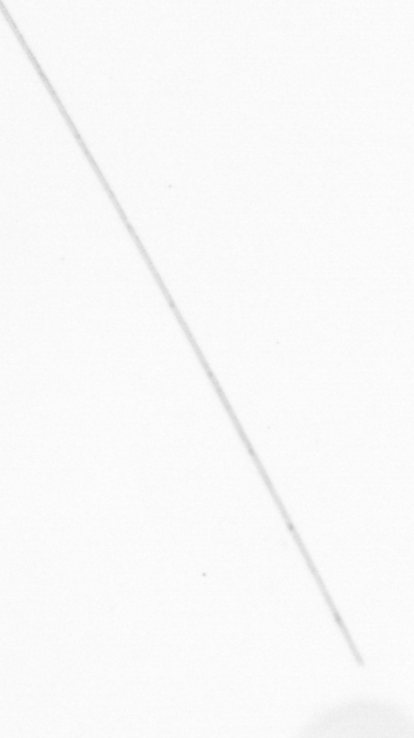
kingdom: Chromista
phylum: Ochrophyta
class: Bacillariophyceae
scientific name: Bacillariophyceae
